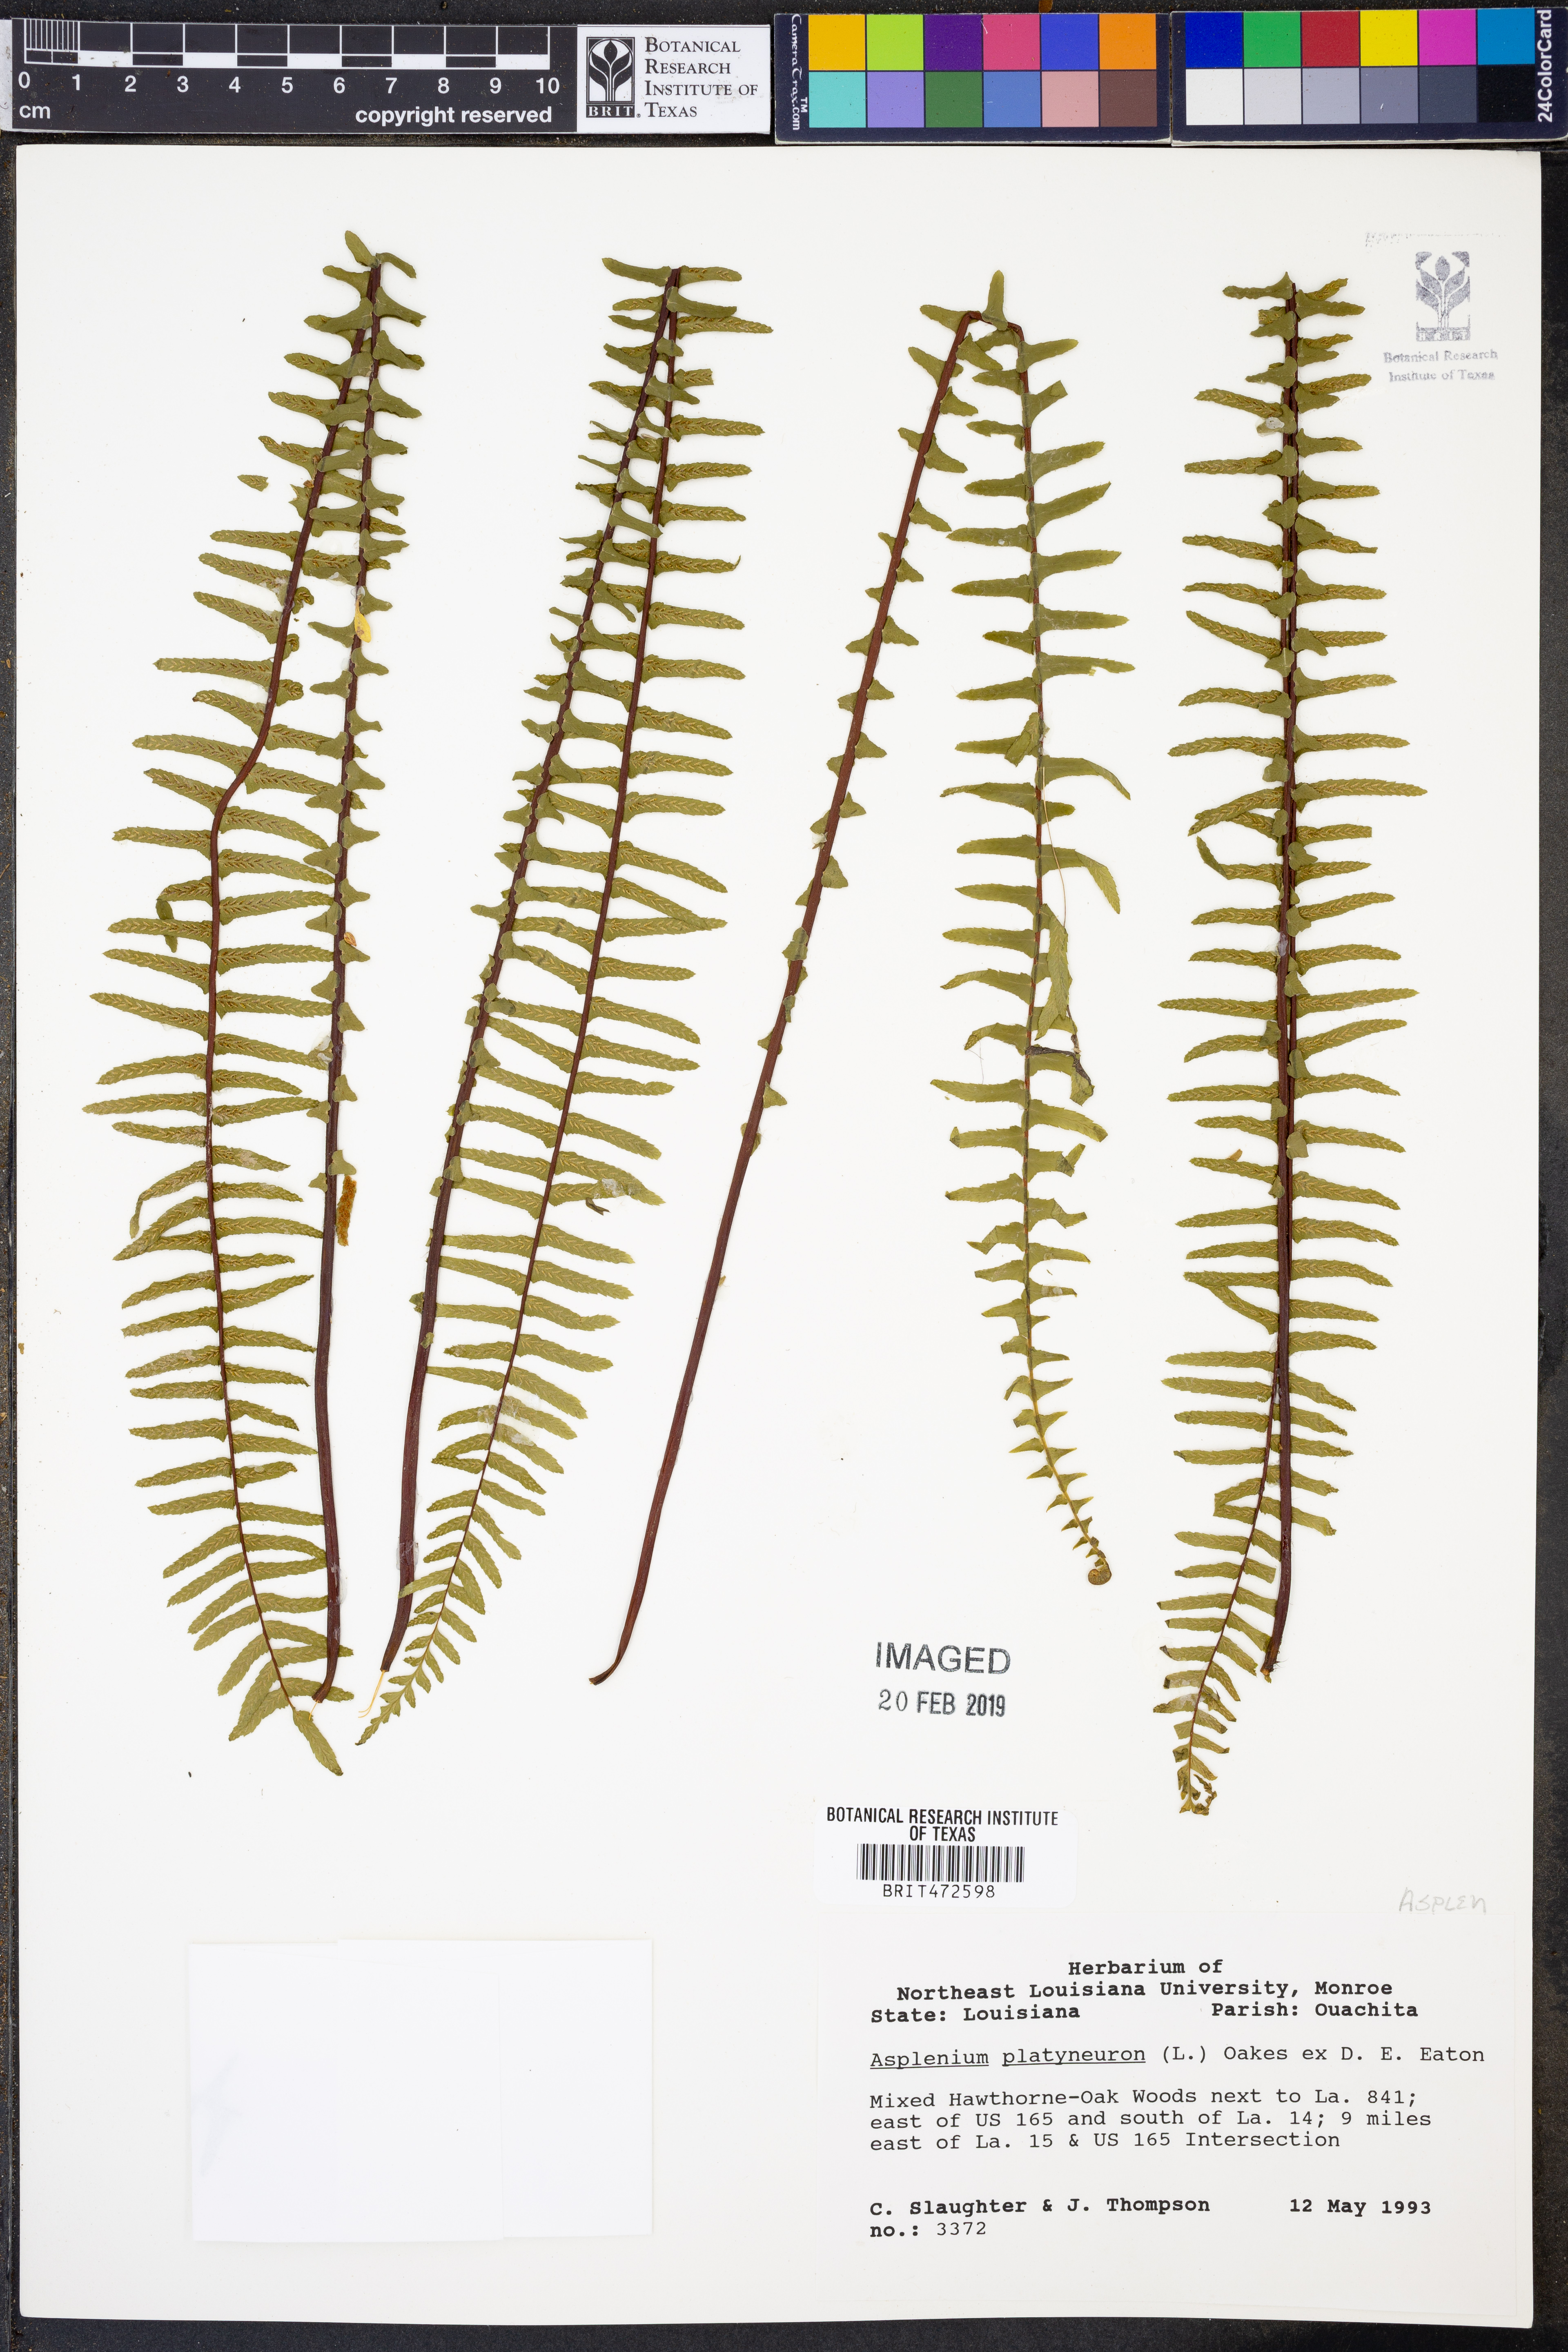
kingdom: Plantae
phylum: Tracheophyta
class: Polypodiopsida
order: Polypodiales
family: Aspleniaceae
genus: Asplenium
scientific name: Asplenium platyneuron
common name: Ebony spleenwort
